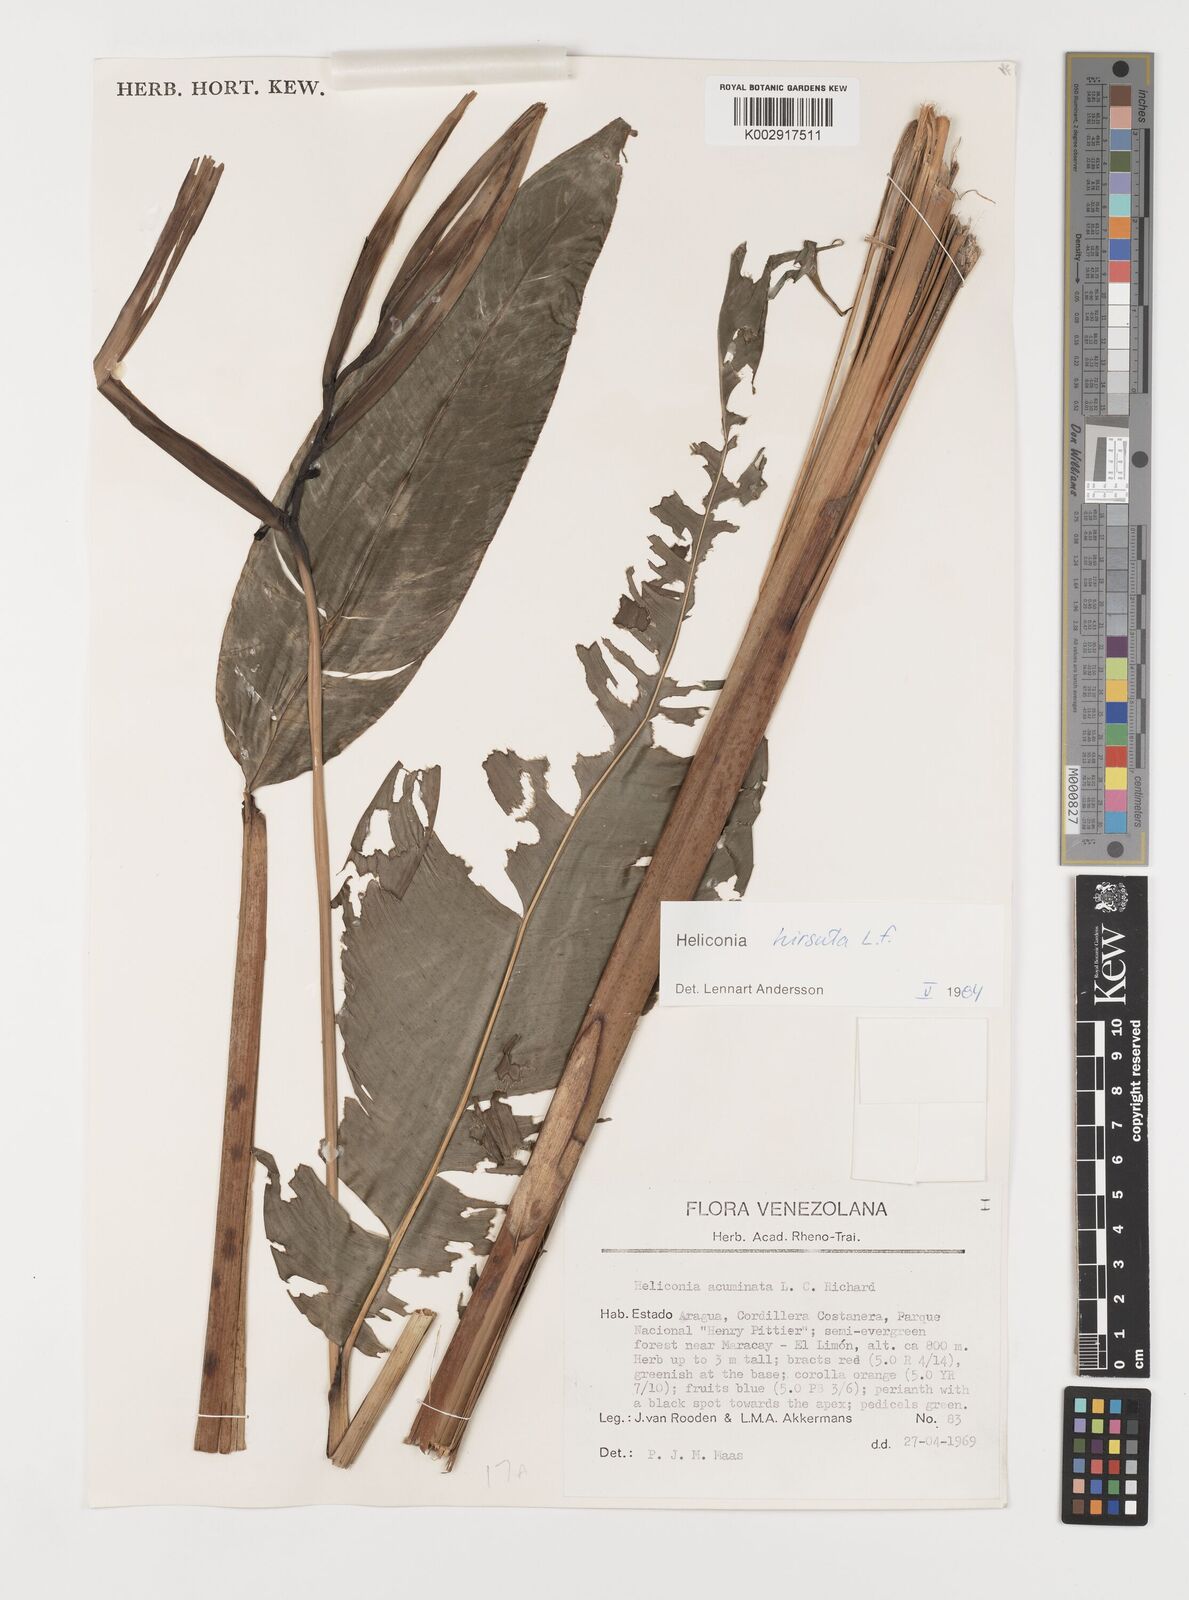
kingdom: Plantae
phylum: Tracheophyta
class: Liliopsida
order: Zingiberales
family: Heliconiaceae
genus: Heliconia
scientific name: Heliconia hirsuta
